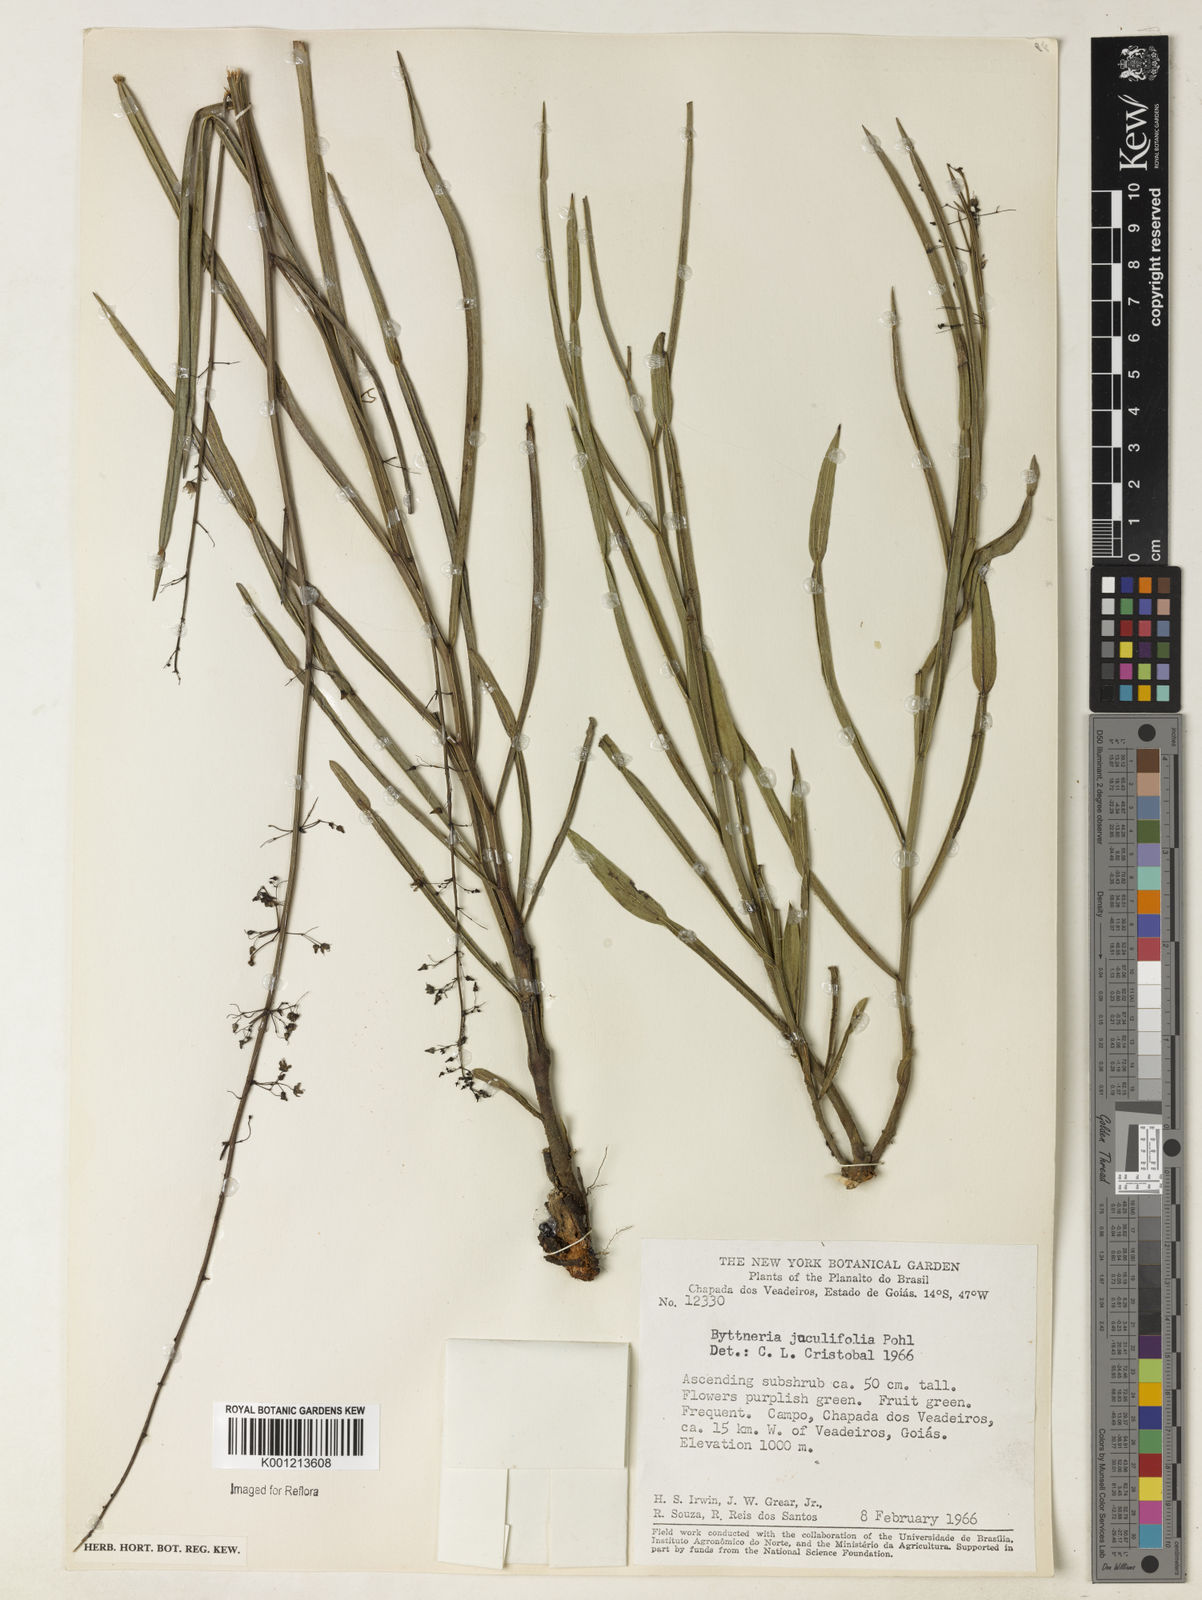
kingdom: Plantae
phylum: Tracheophyta
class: Magnoliopsida
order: Malvales
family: Malvaceae
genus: Byttneria
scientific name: Byttneria jaculifolia
